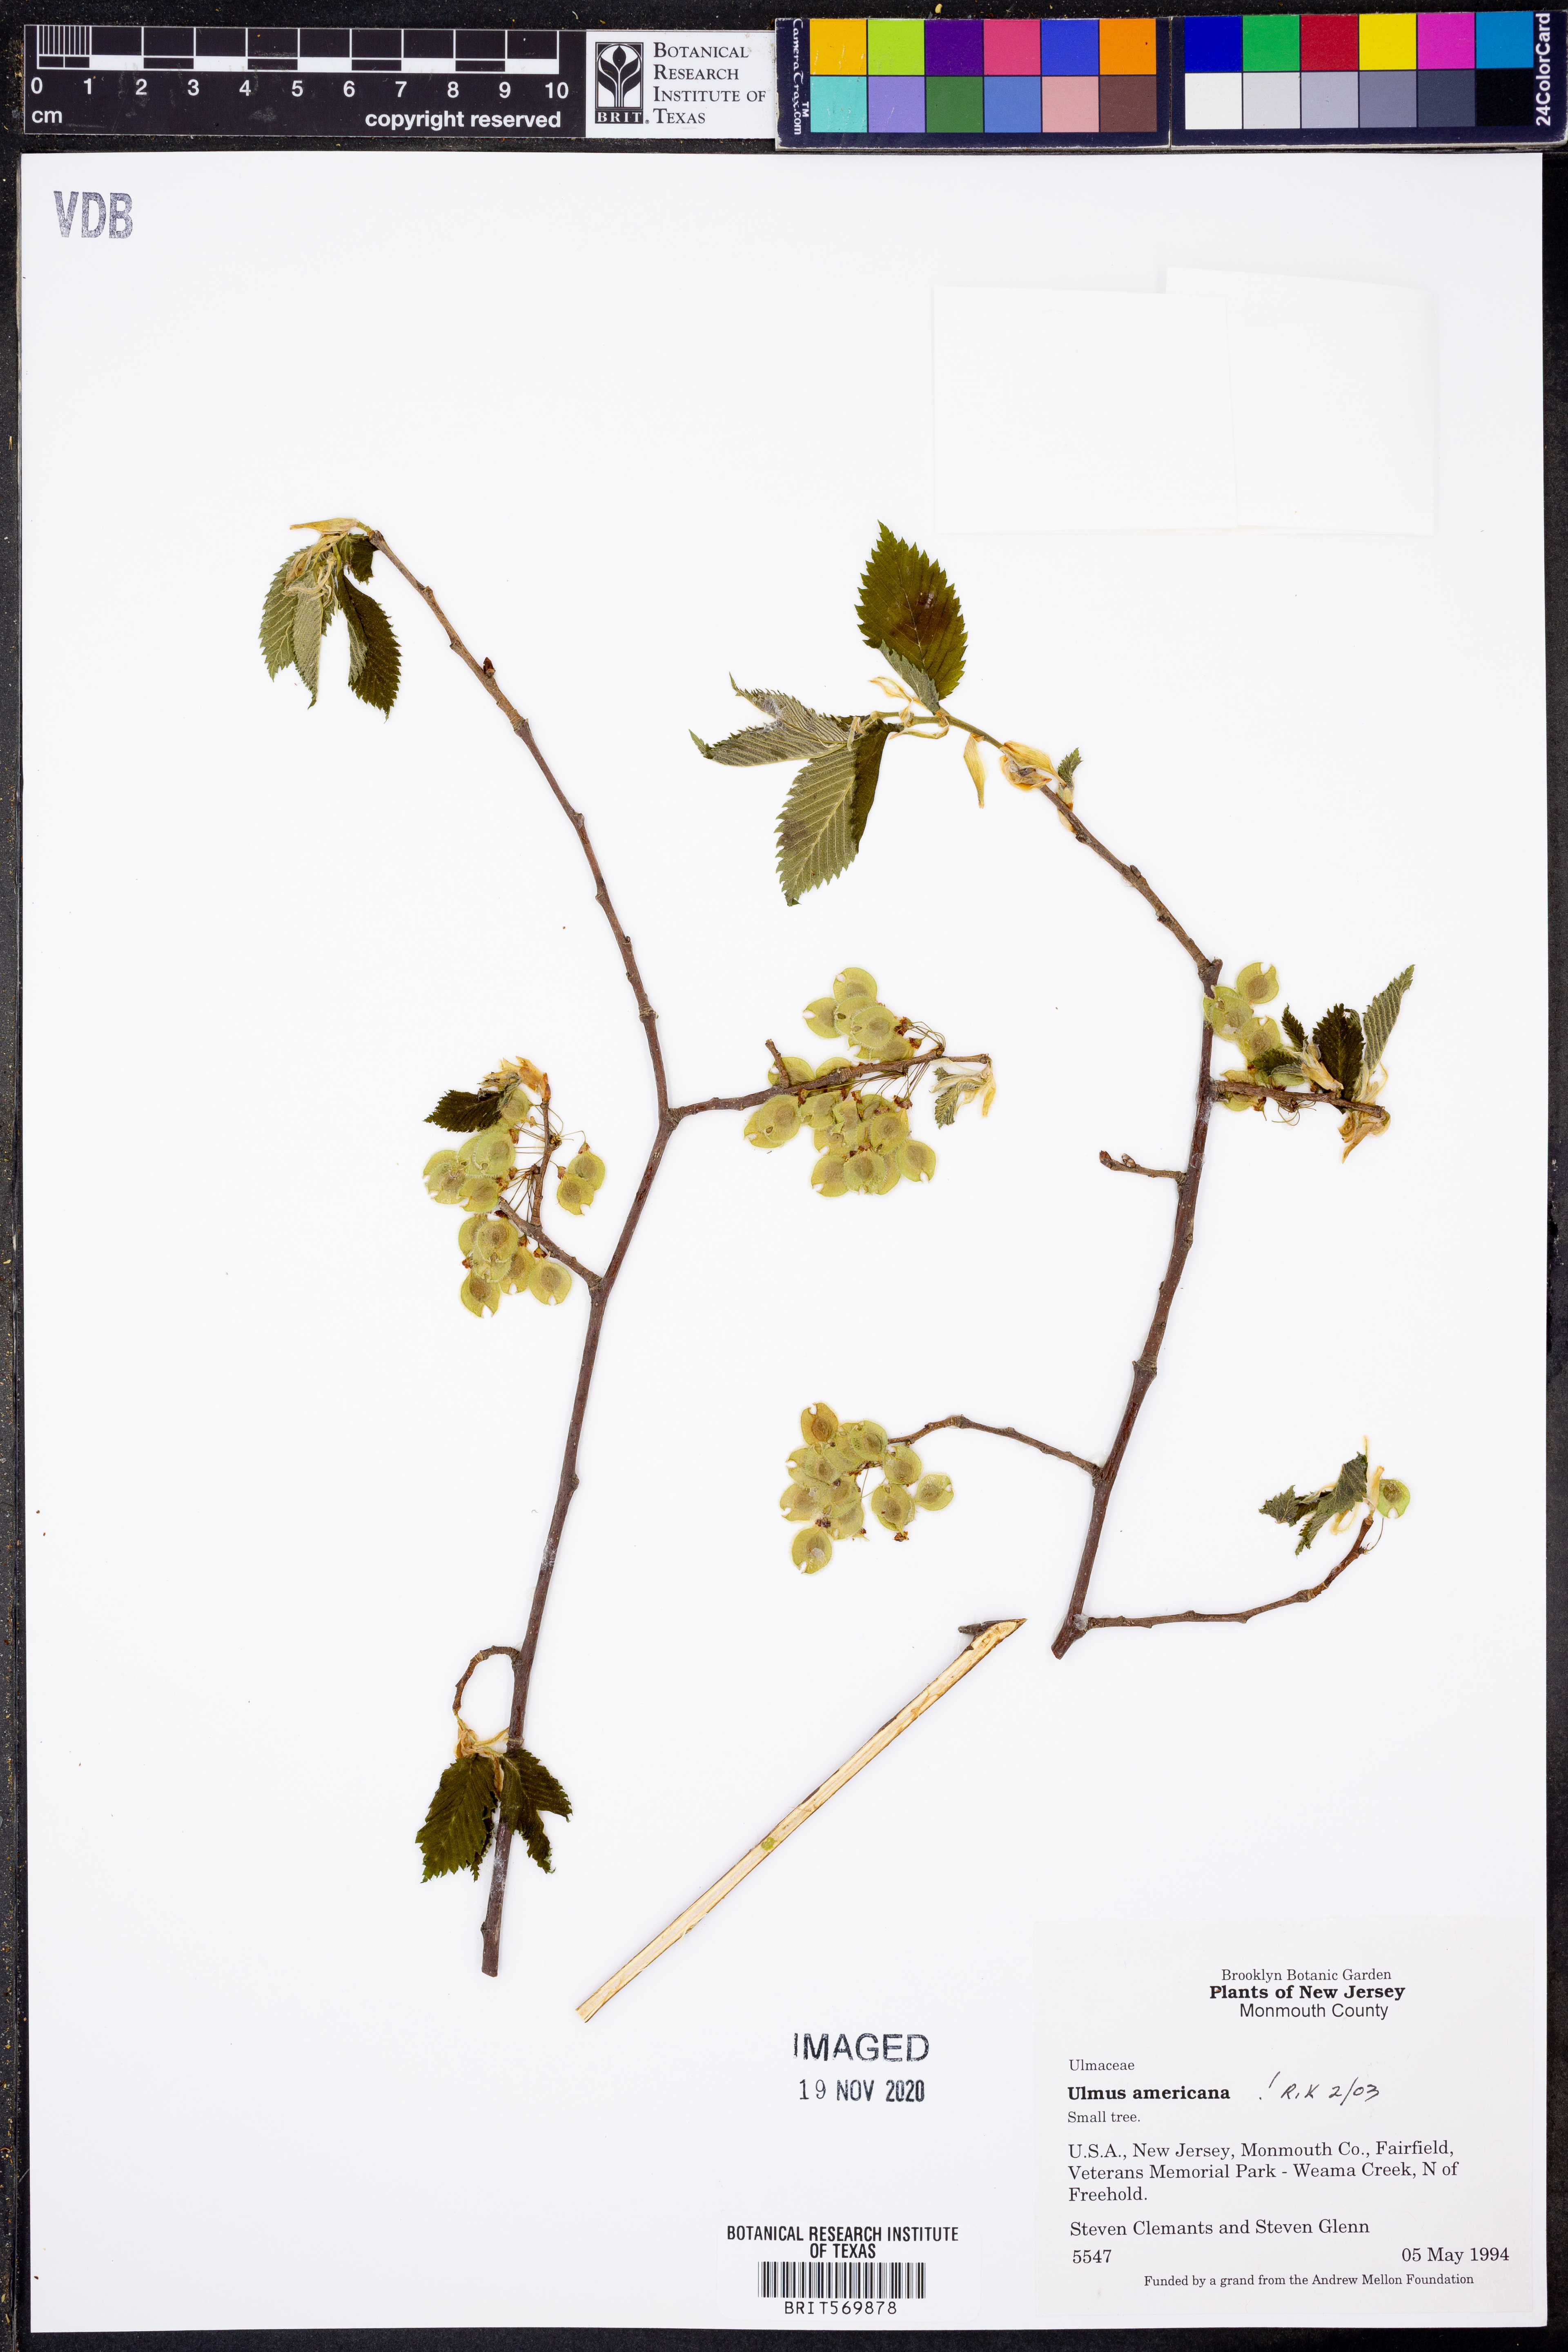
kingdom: Plantae
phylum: Tracheophyta
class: Magnoliopsida
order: Rosales
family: Ulmaceae
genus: Ulmus
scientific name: Ulmus americana
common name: American elm
